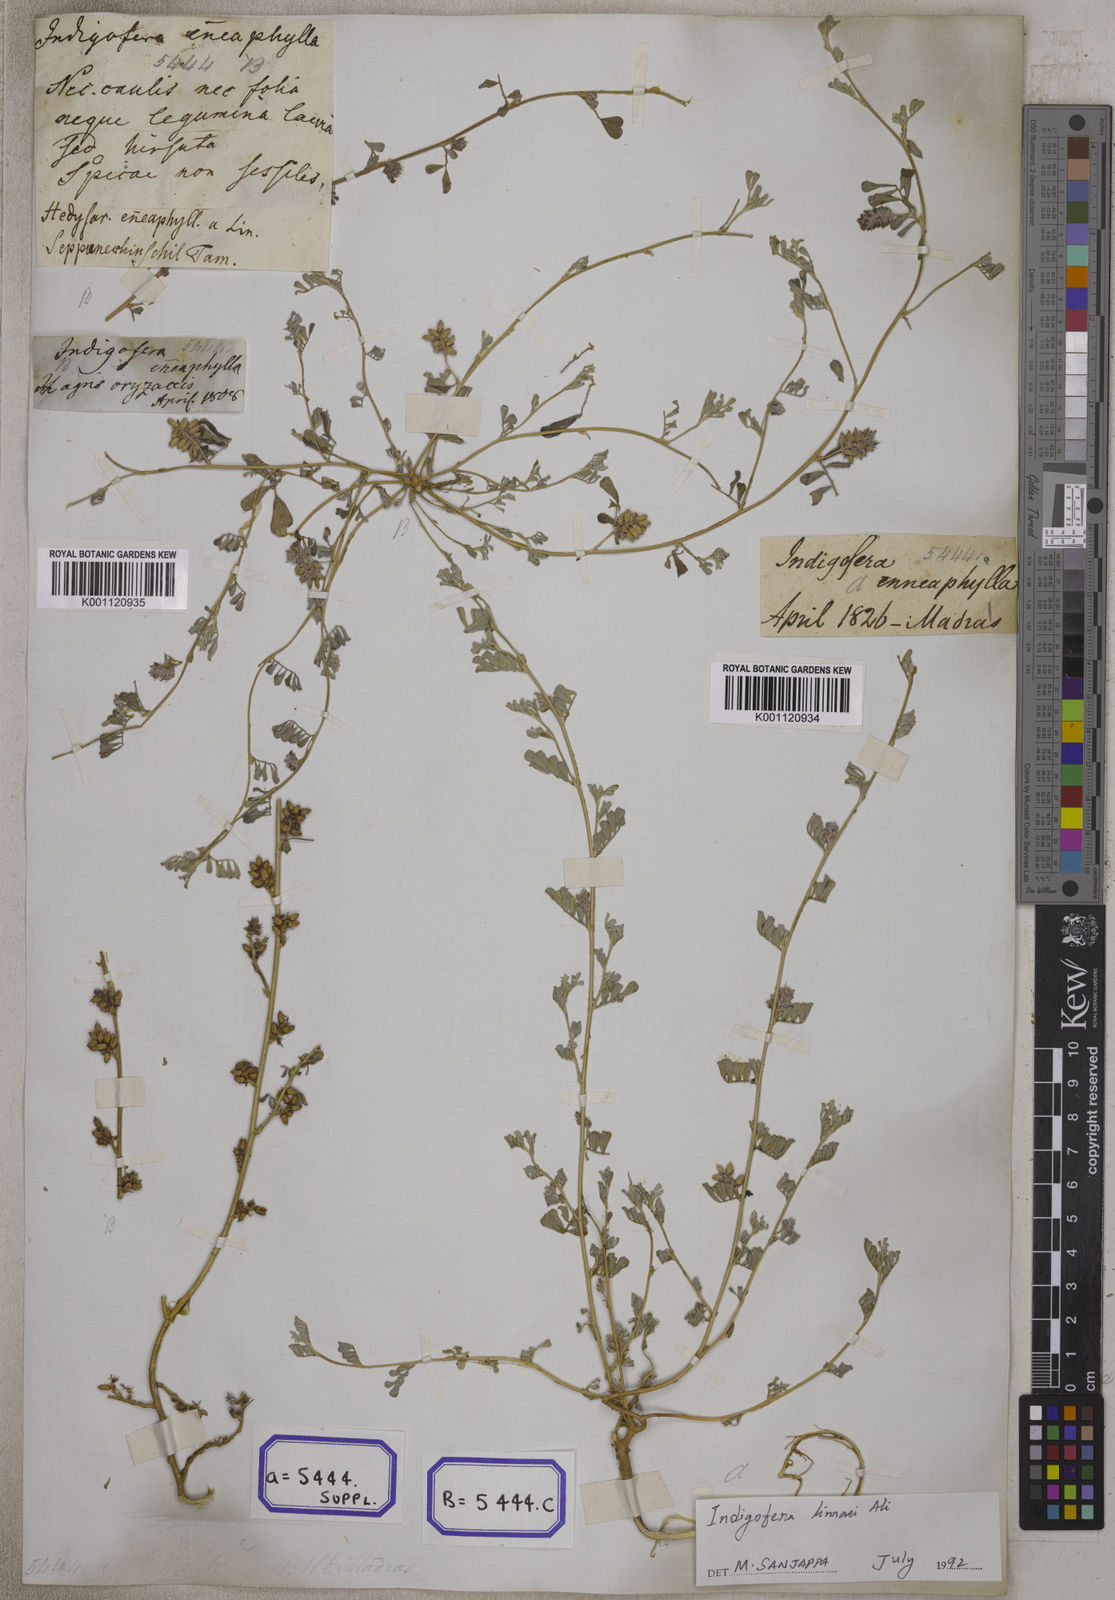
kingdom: Plantae
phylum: Tracheophyta
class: Magnoliopsida
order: Fabales
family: Fabaceae
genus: Indigofera
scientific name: Indigofera linnaei
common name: Nine-leaf indigo
